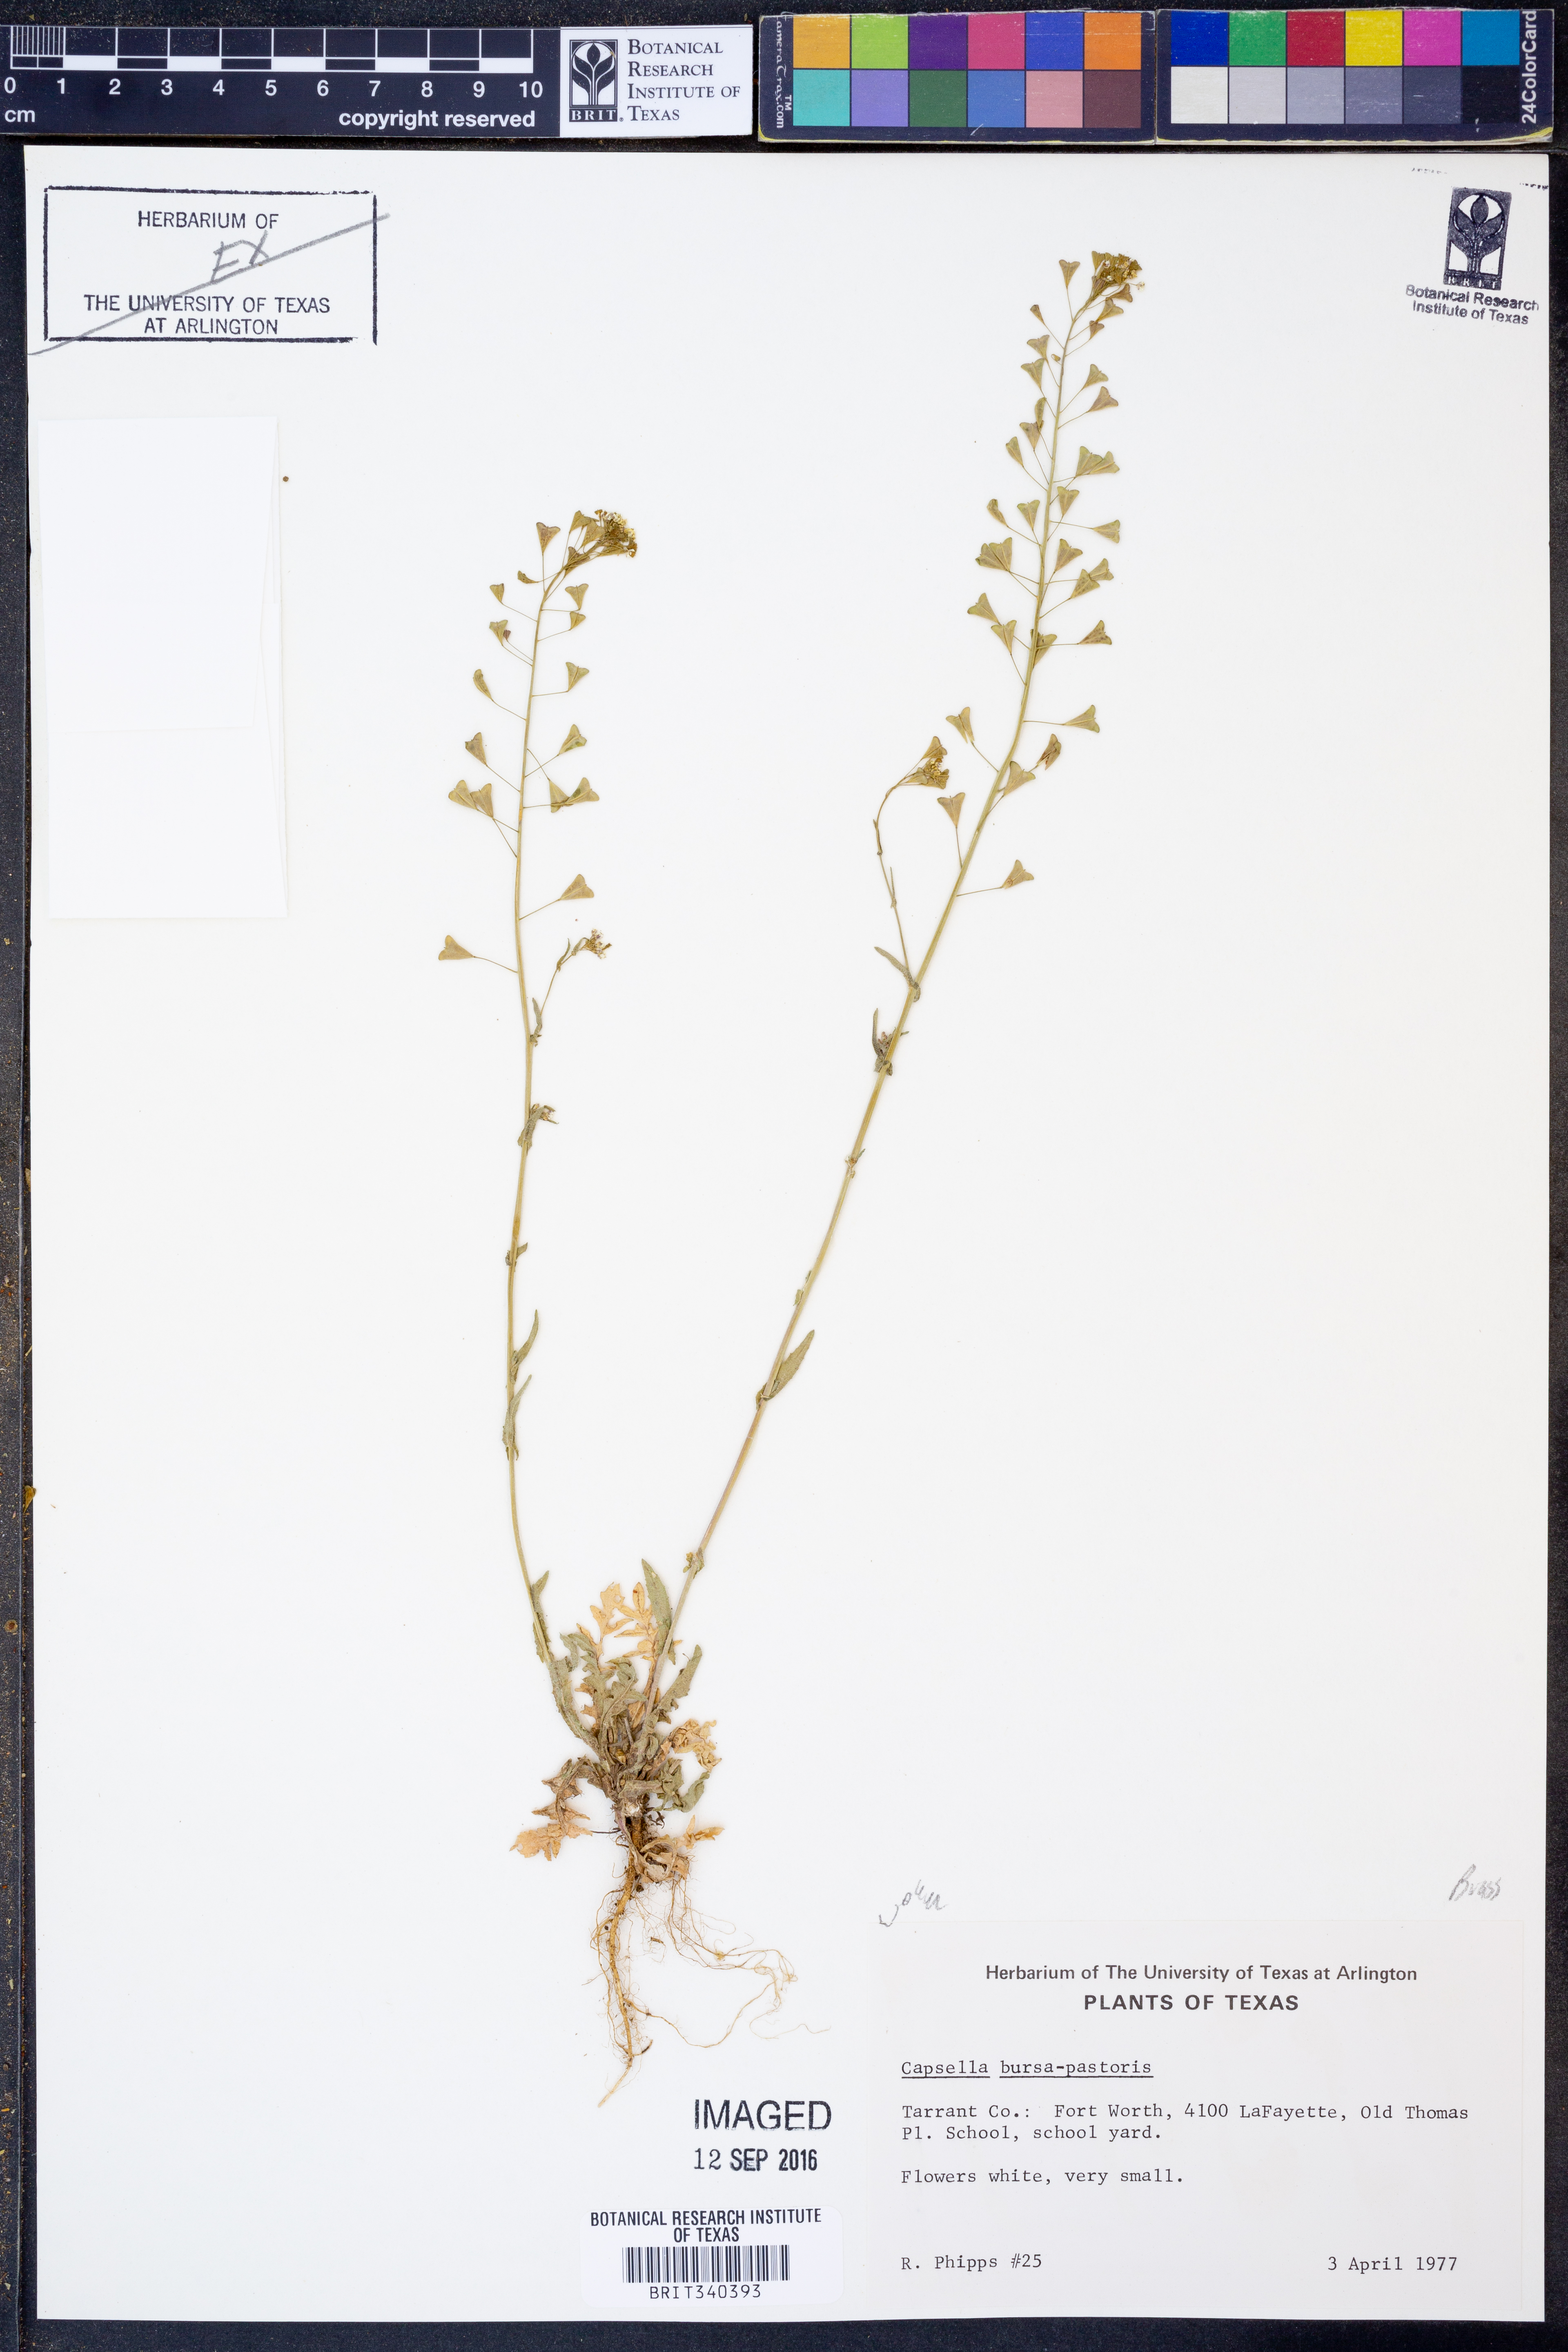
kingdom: Plantae
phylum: Tracheophyta
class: Magnoliopsida
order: Brassicales
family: Brassicaceae
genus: Capsella
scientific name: Capsella bursa-pastoris
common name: Shepherd's purse
